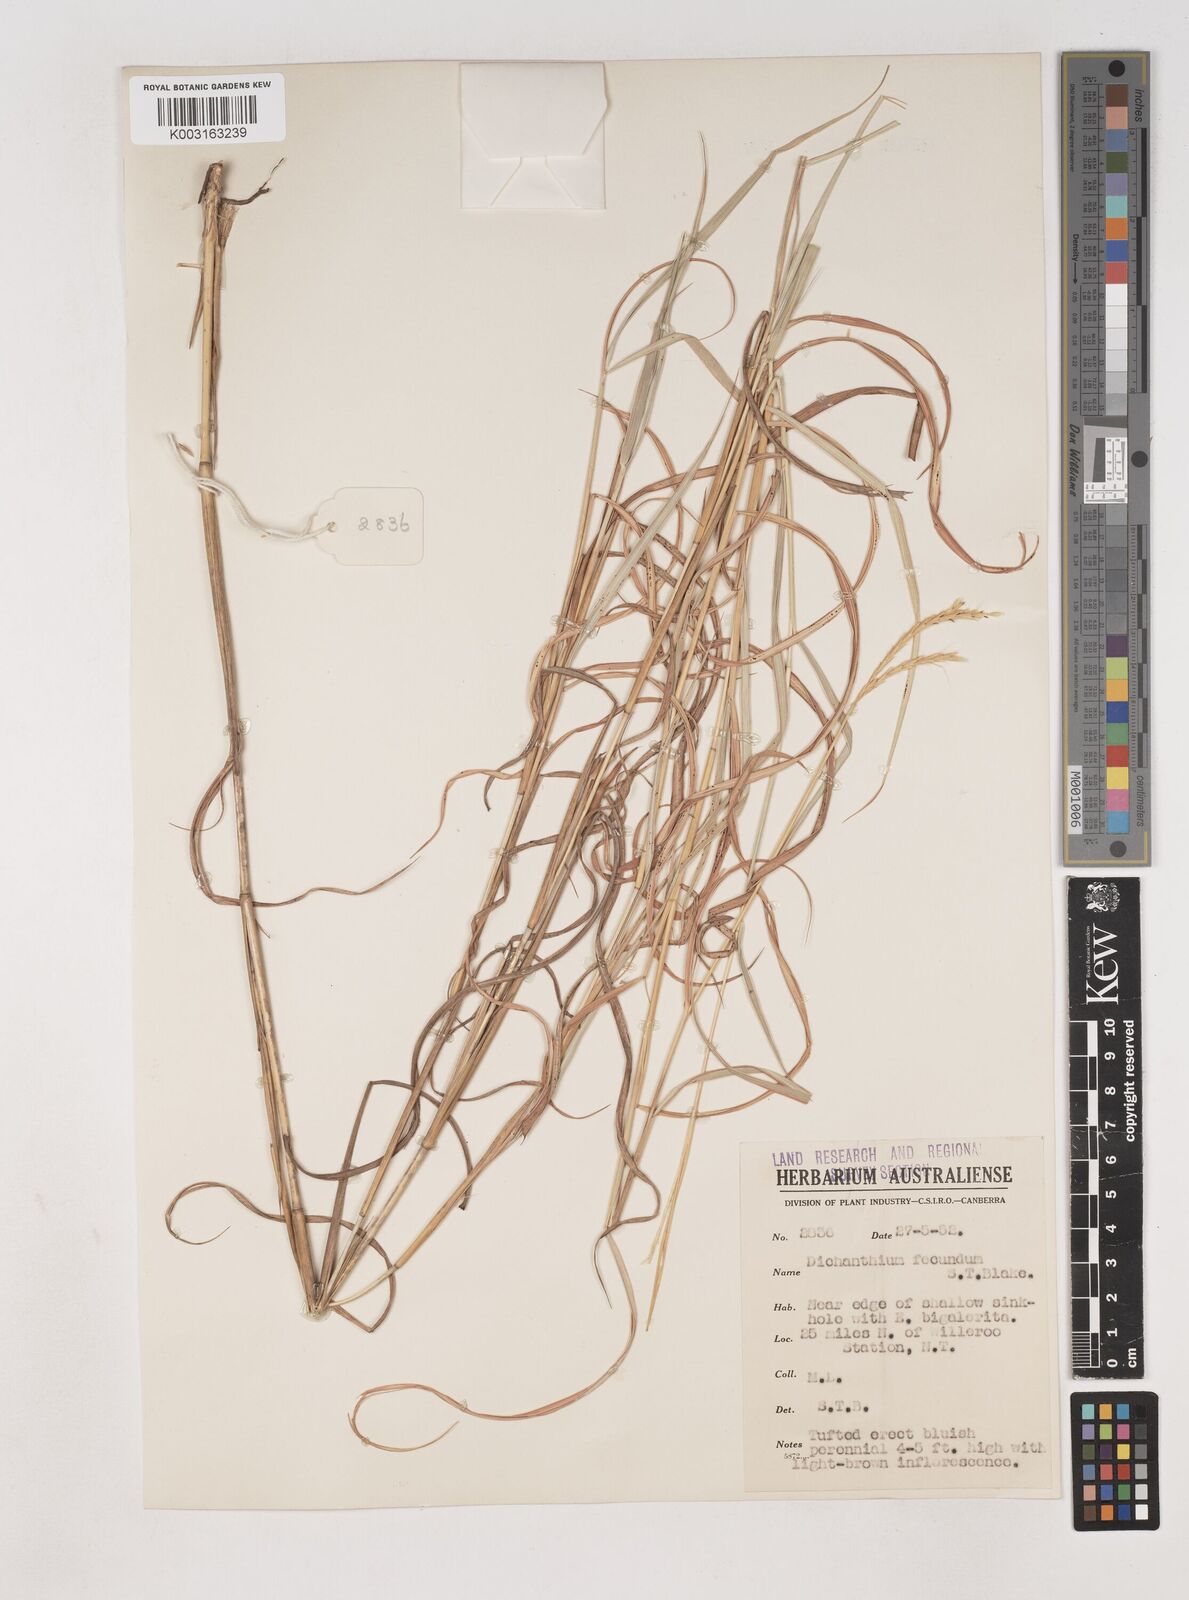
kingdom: Plantae
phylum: Tracheophyta
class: Liliopsida
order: Poales
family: Poaceae
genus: Dichanthium
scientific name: Dichanthium fecundum
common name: Bundle-bundle
